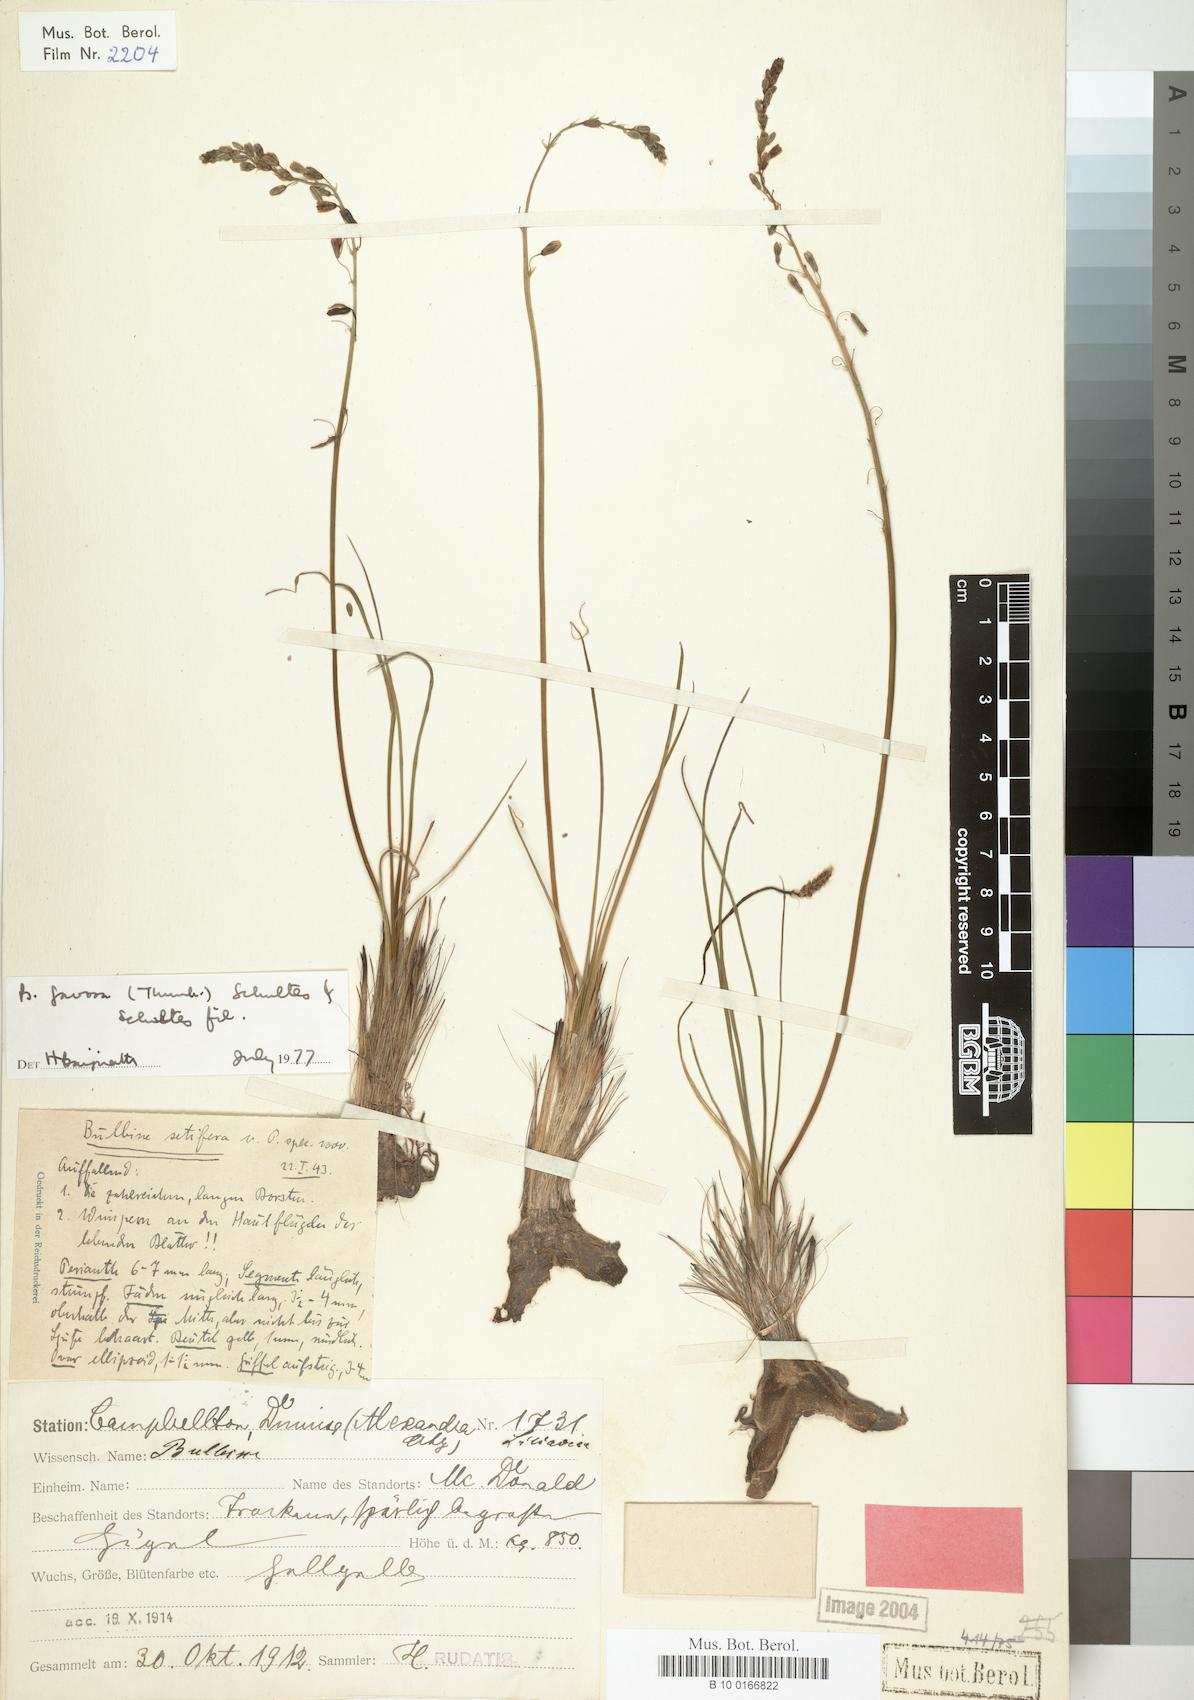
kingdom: Plantae
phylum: Tracheophyta
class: Liliopsida
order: Asparagales
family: Asphodelaceae
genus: Bulbine
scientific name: Bulbine favosa
